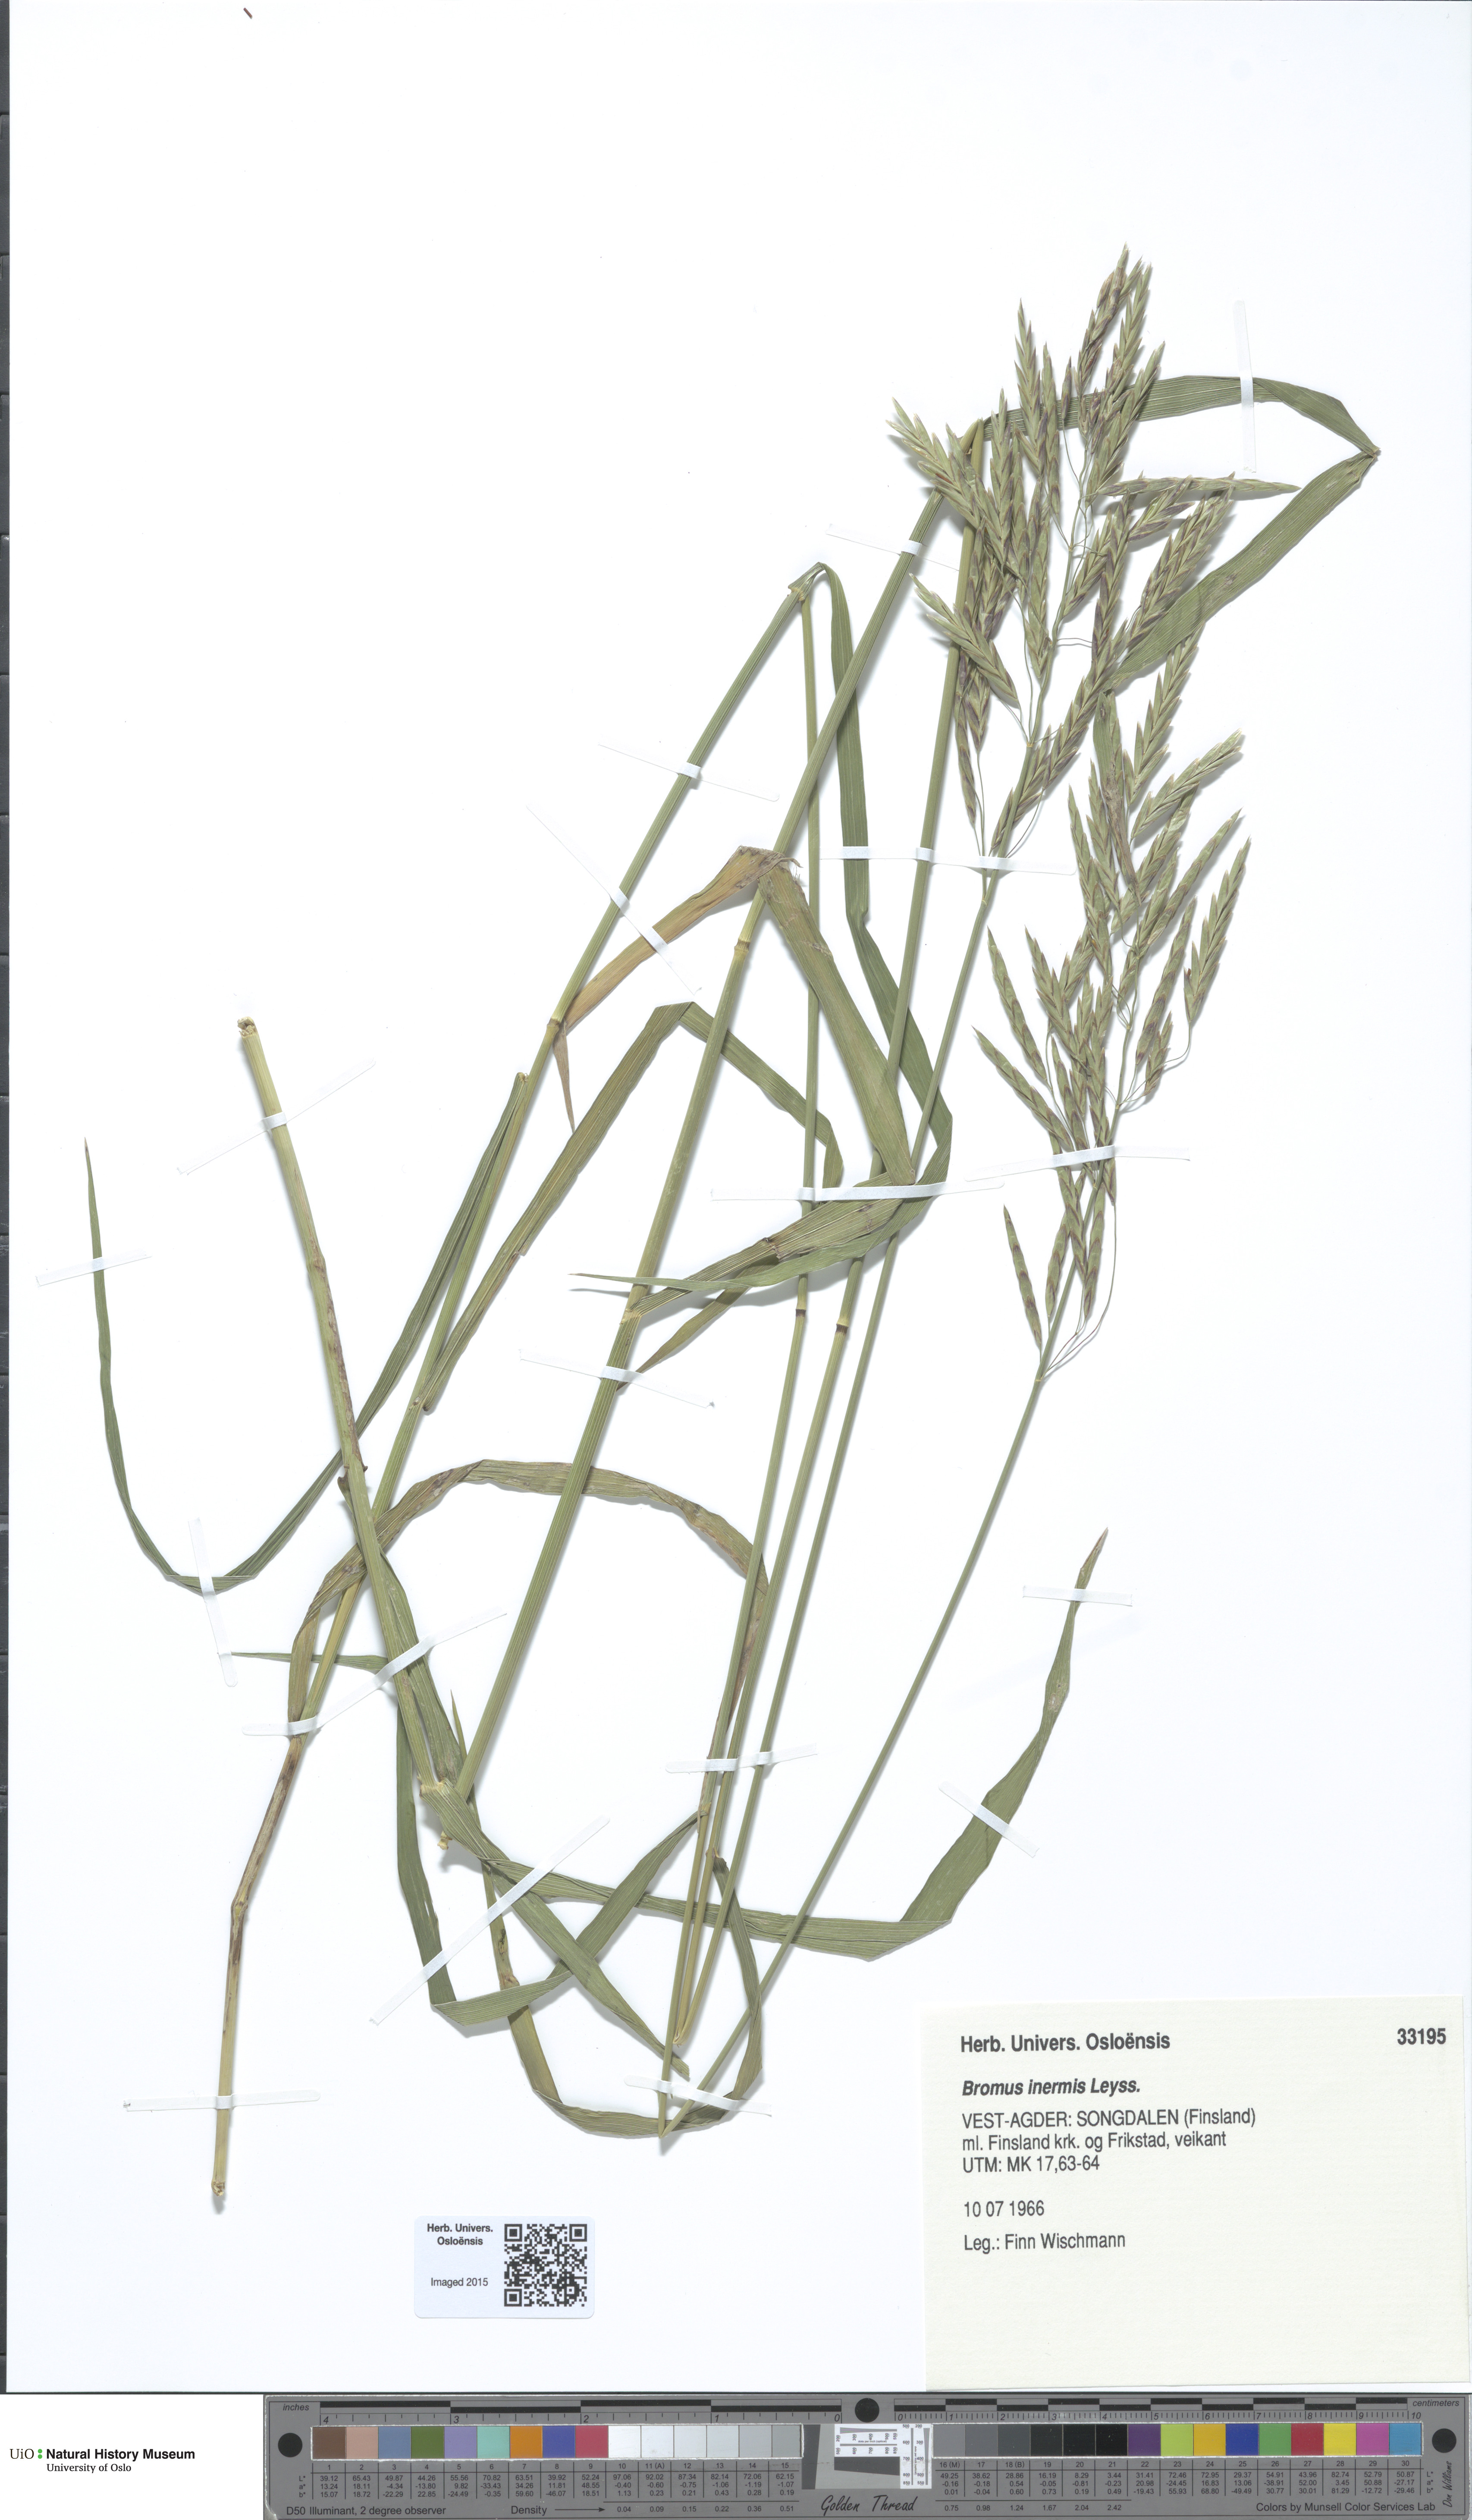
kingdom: Plantae
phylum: Tracheophyta
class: Liliopsida
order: Poales
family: Poaceae
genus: Bromus
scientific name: Bromus inermis
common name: Smooth brome
